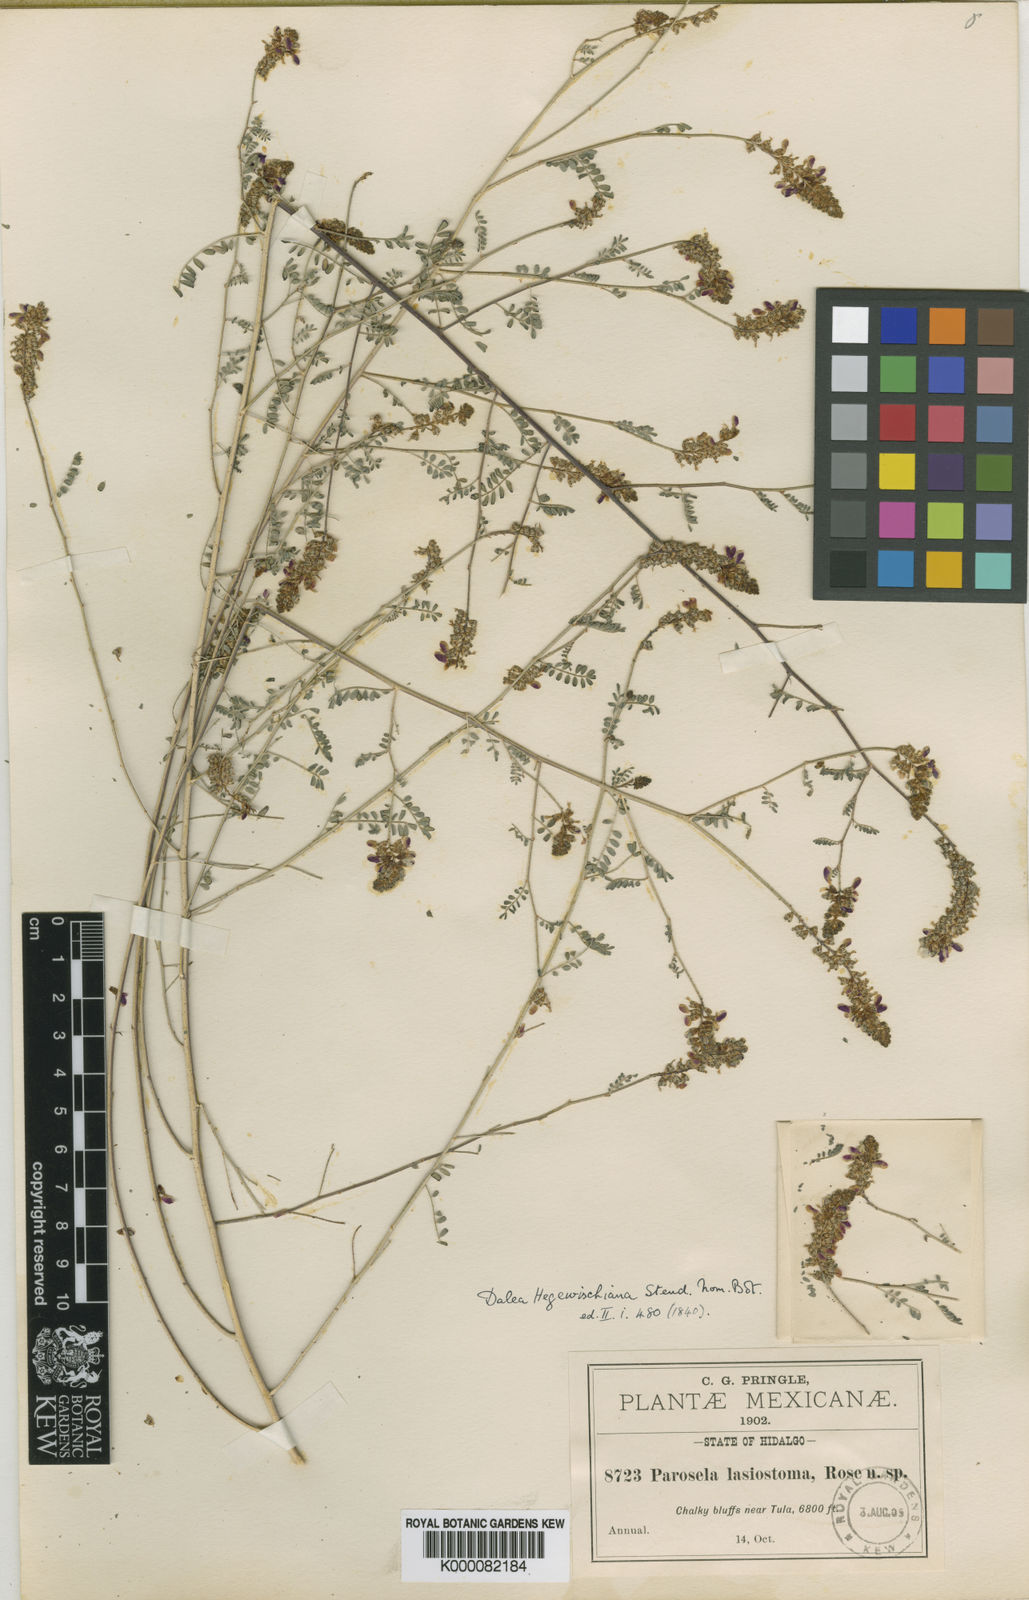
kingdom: Plantae
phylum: Tracheophyta
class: Magnoliopsida
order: Fabales
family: Fabaceae
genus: Dalea
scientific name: Dalea hegewischiana
